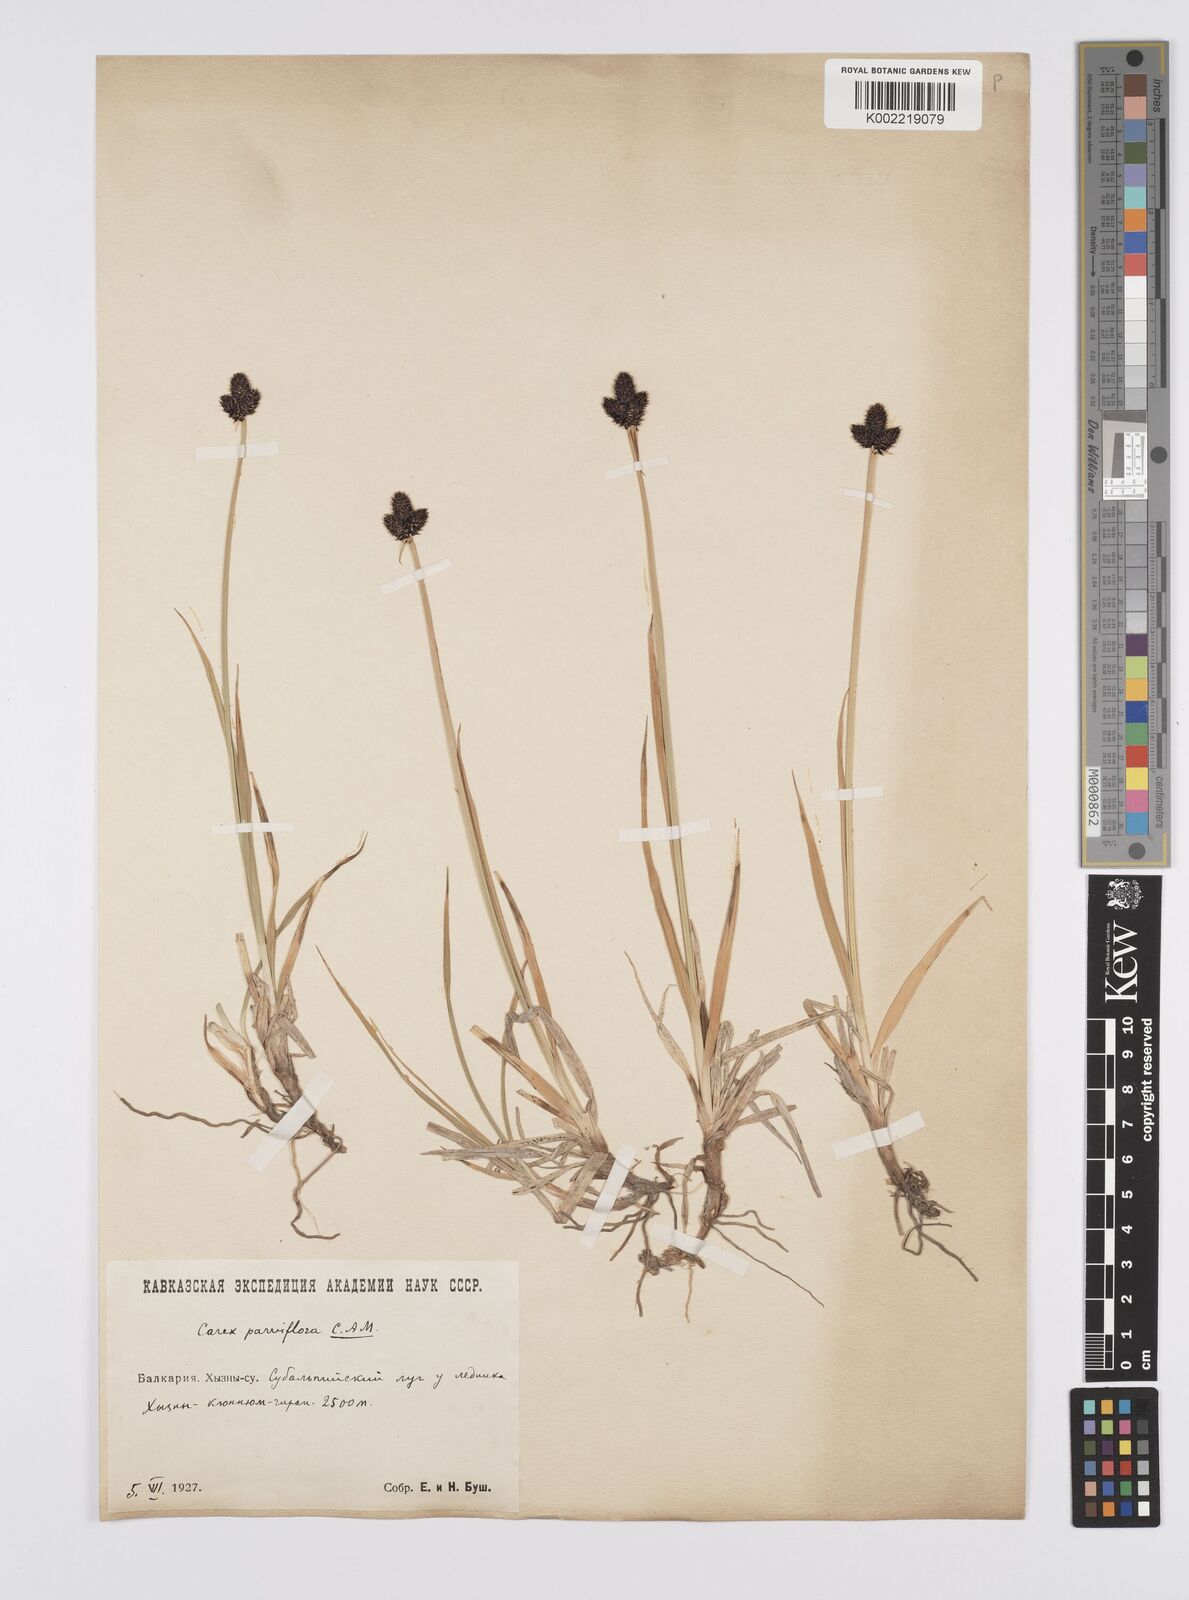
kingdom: Plantae
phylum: Tracheophyta
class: Liliopsida
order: Poales
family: Cyperaceae
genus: Carex
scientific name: Carex oligantha
